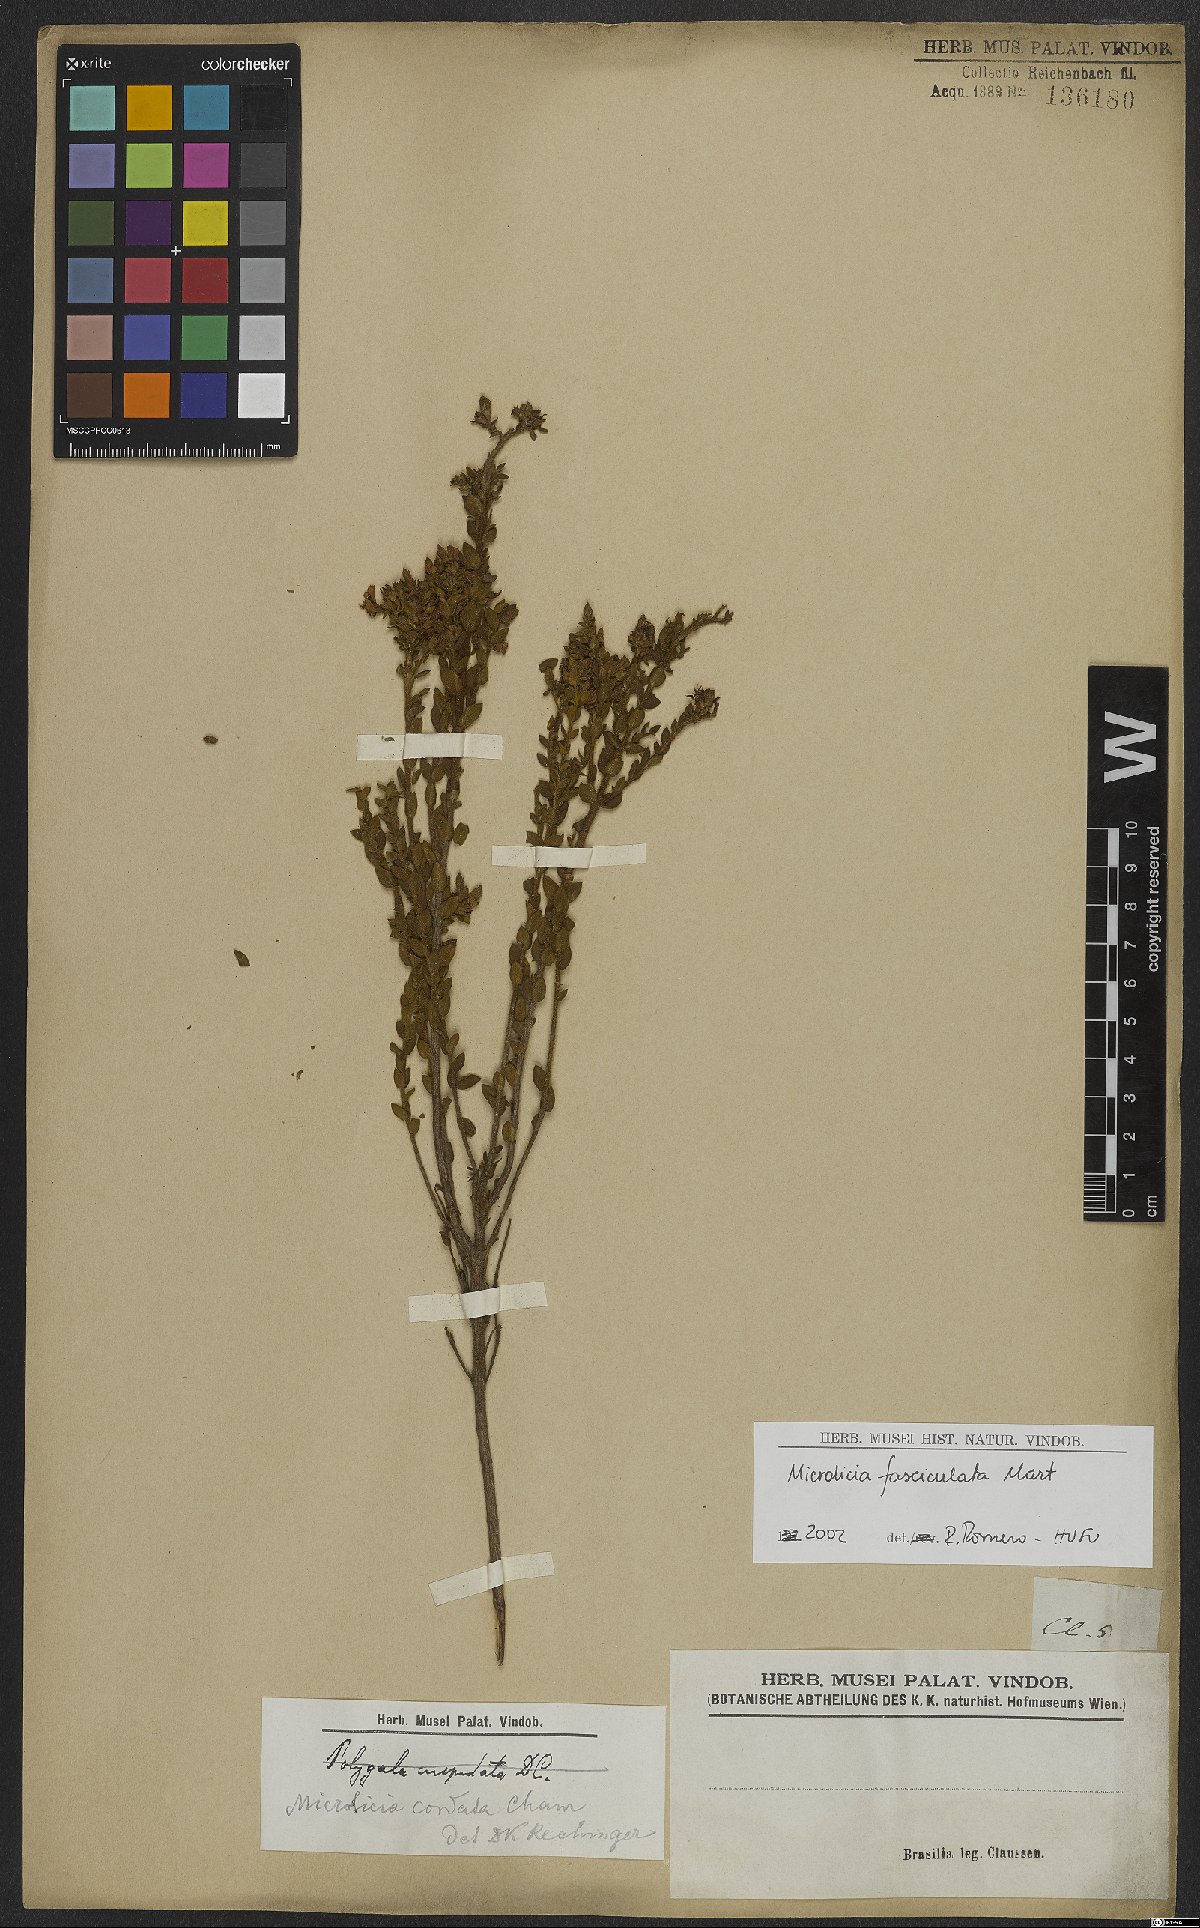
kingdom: Plantae
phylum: Tracheophyta
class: Magnoliopsida
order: Myrtales
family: Melastomataceae
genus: Microlicia
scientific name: Microlicia fasciculata
